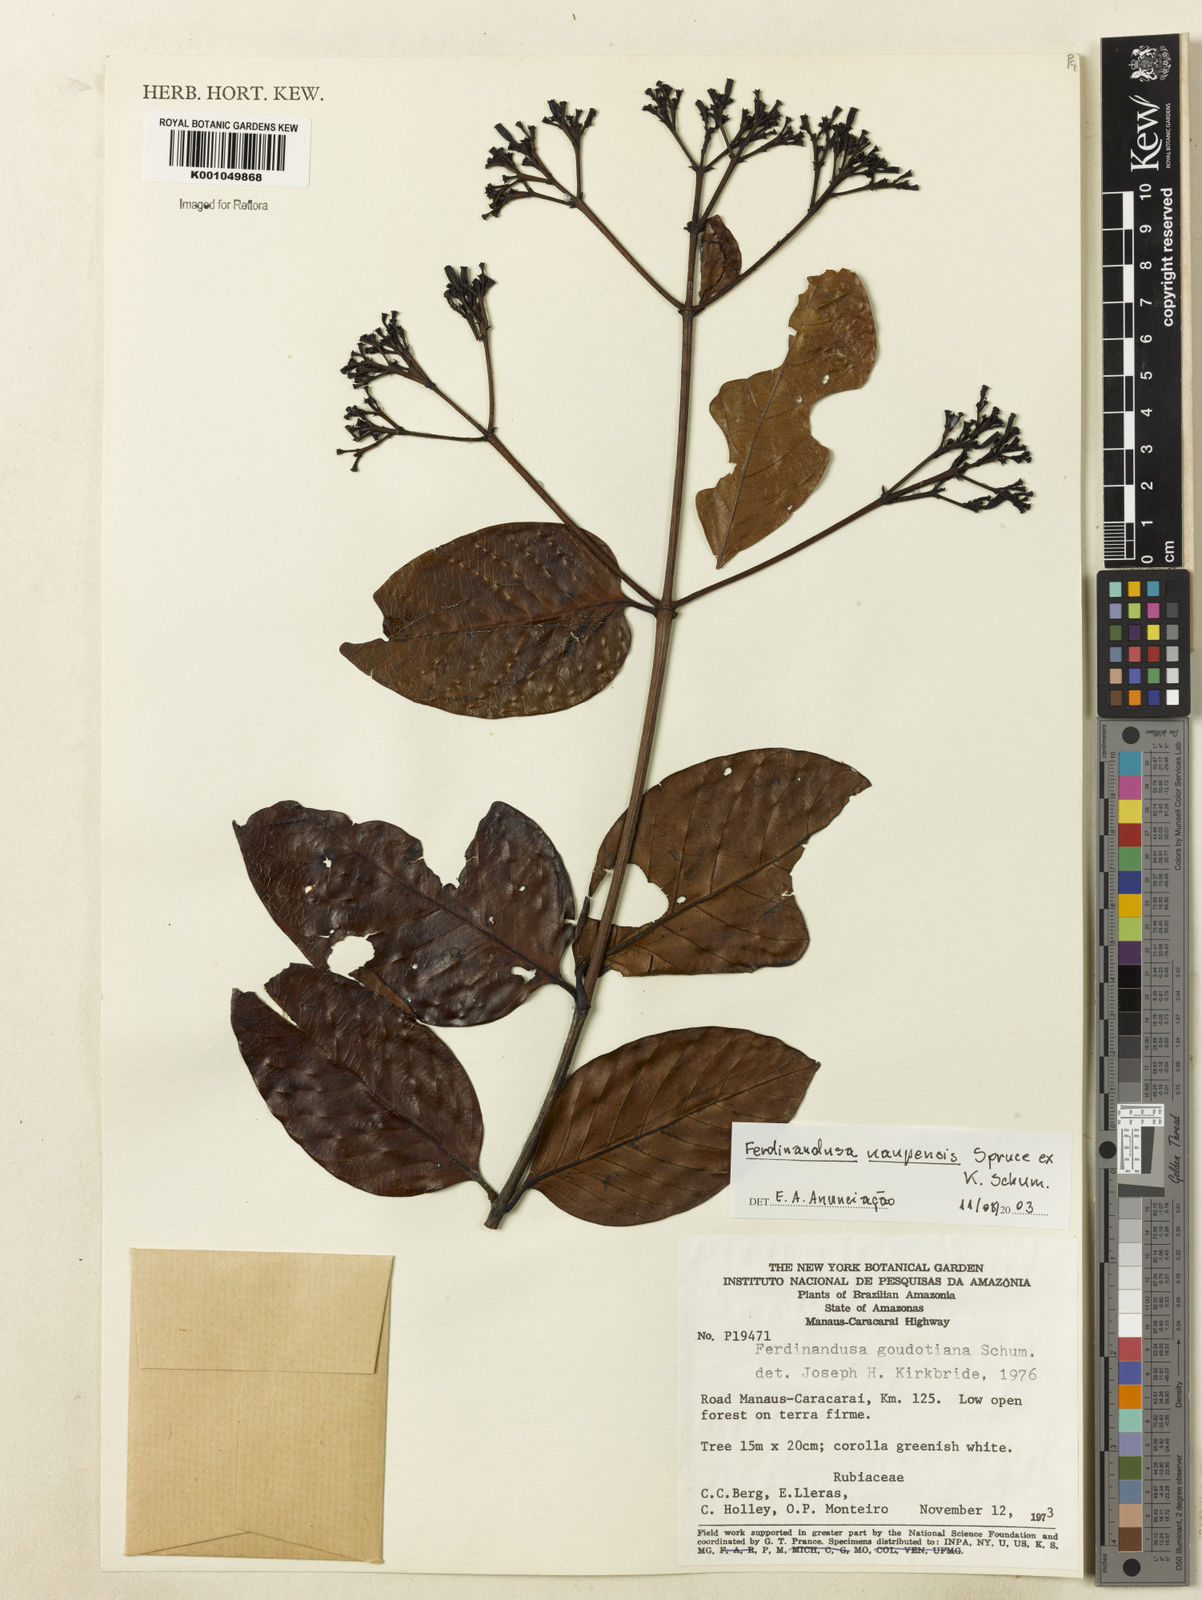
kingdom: Plantae
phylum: Tracheophyta
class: Magnoliopsida
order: Gentianales
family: Rubiaceae
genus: Ferdinandusa
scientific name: Ferdinandusa uaupensis
